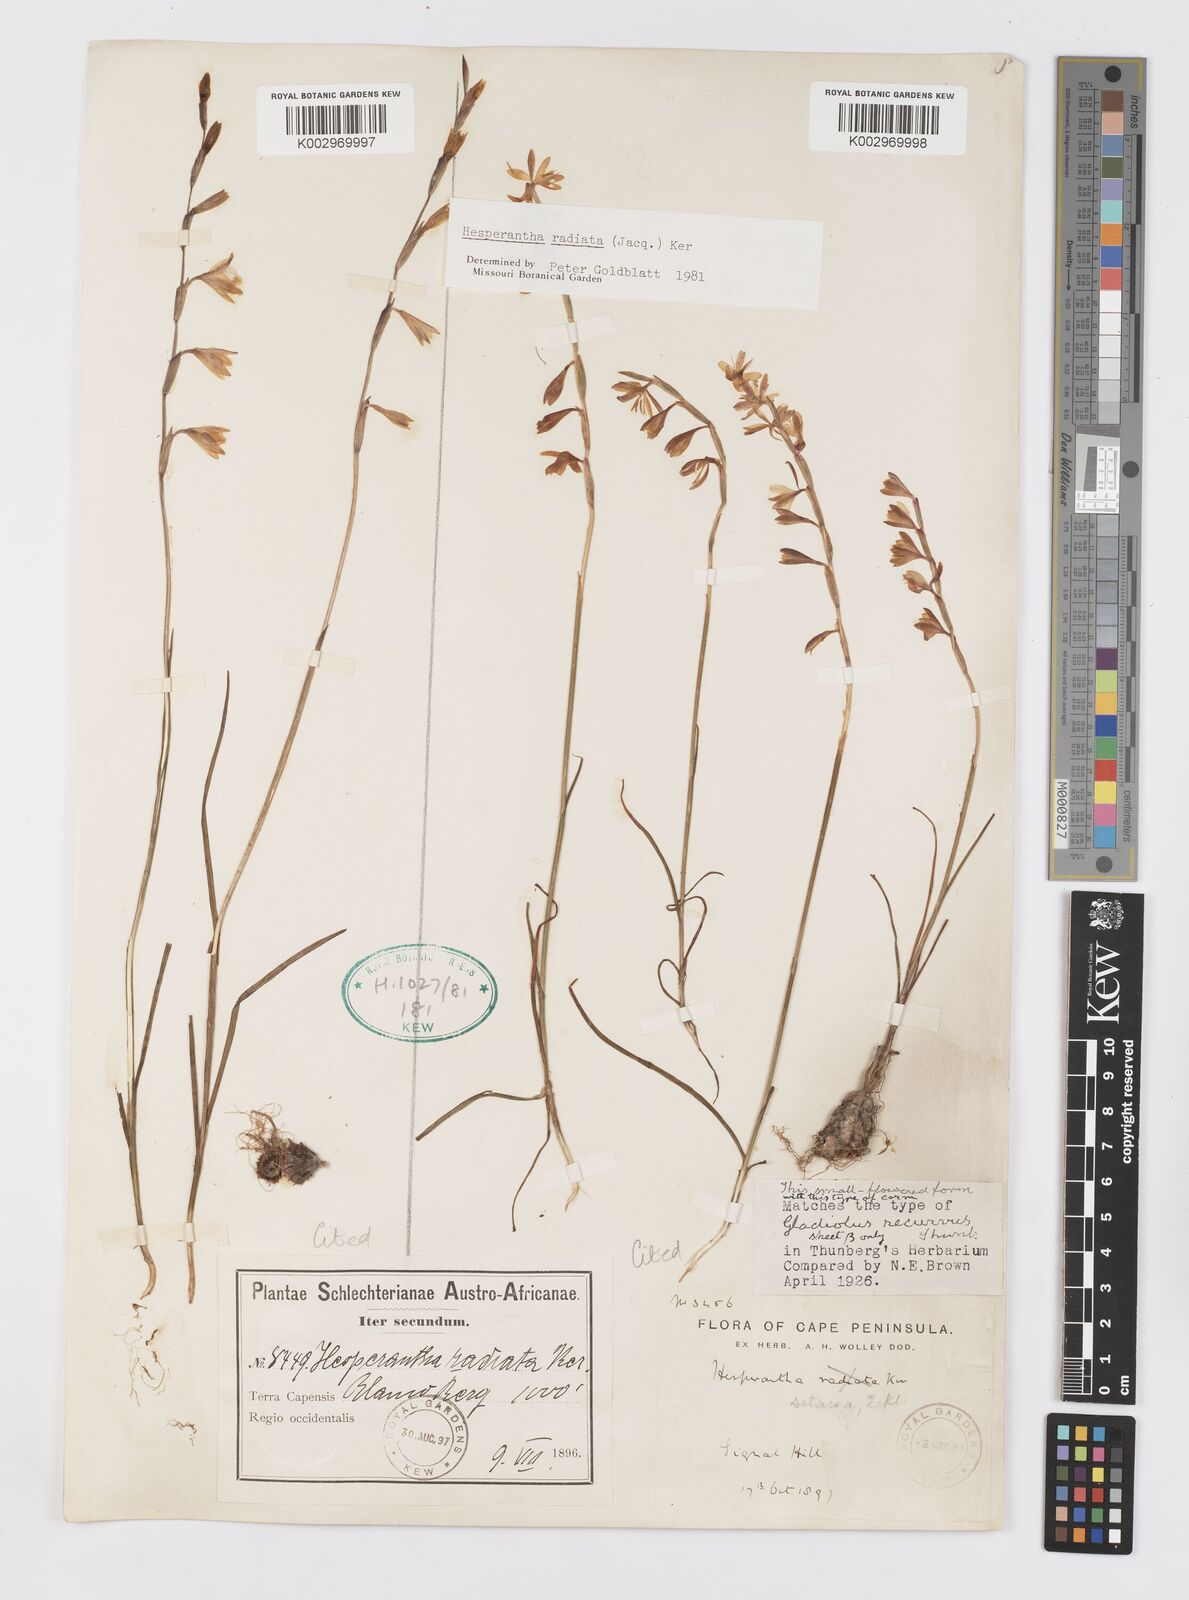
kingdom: Plantae
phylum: Tracheophyta
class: Liliopsida
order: Asparagales
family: Iridaceae
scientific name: Iridaceae
